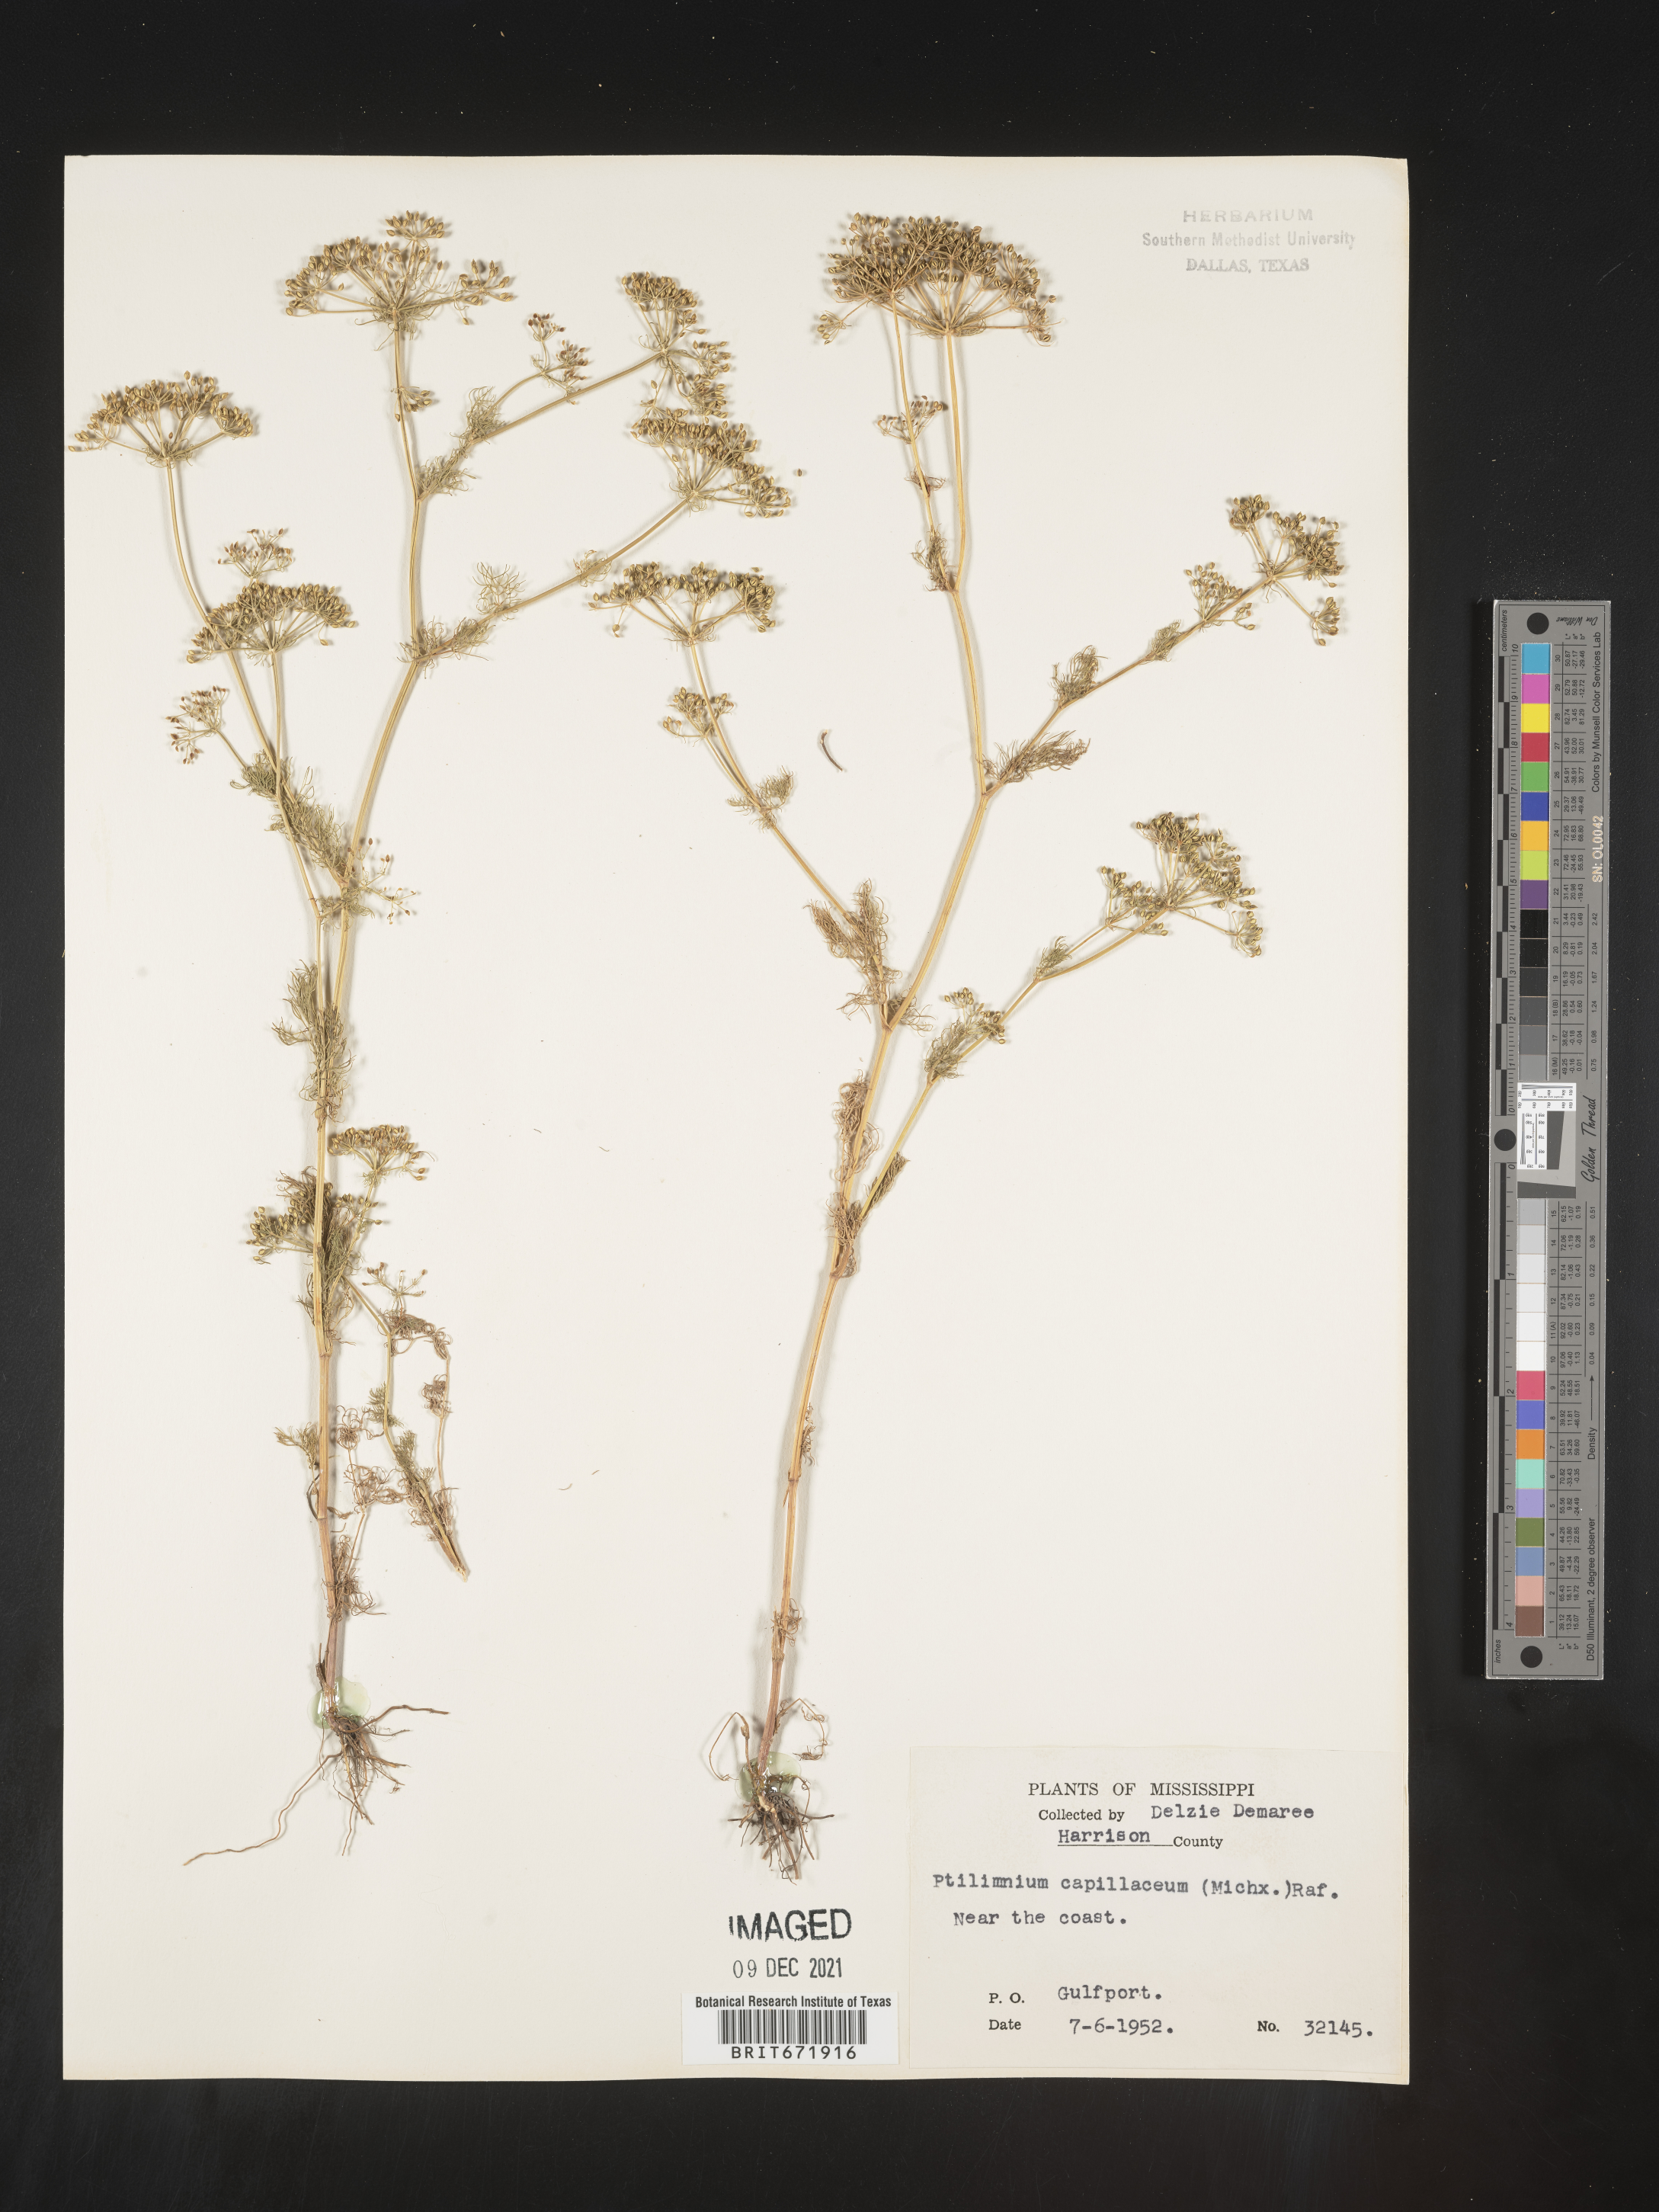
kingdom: Plantae
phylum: Tracheophyta
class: Magnoliopsida
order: Apiales
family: Apiaceae
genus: Ptilimnium
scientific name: Ptilimnium capillaceum
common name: Herbwilliam
